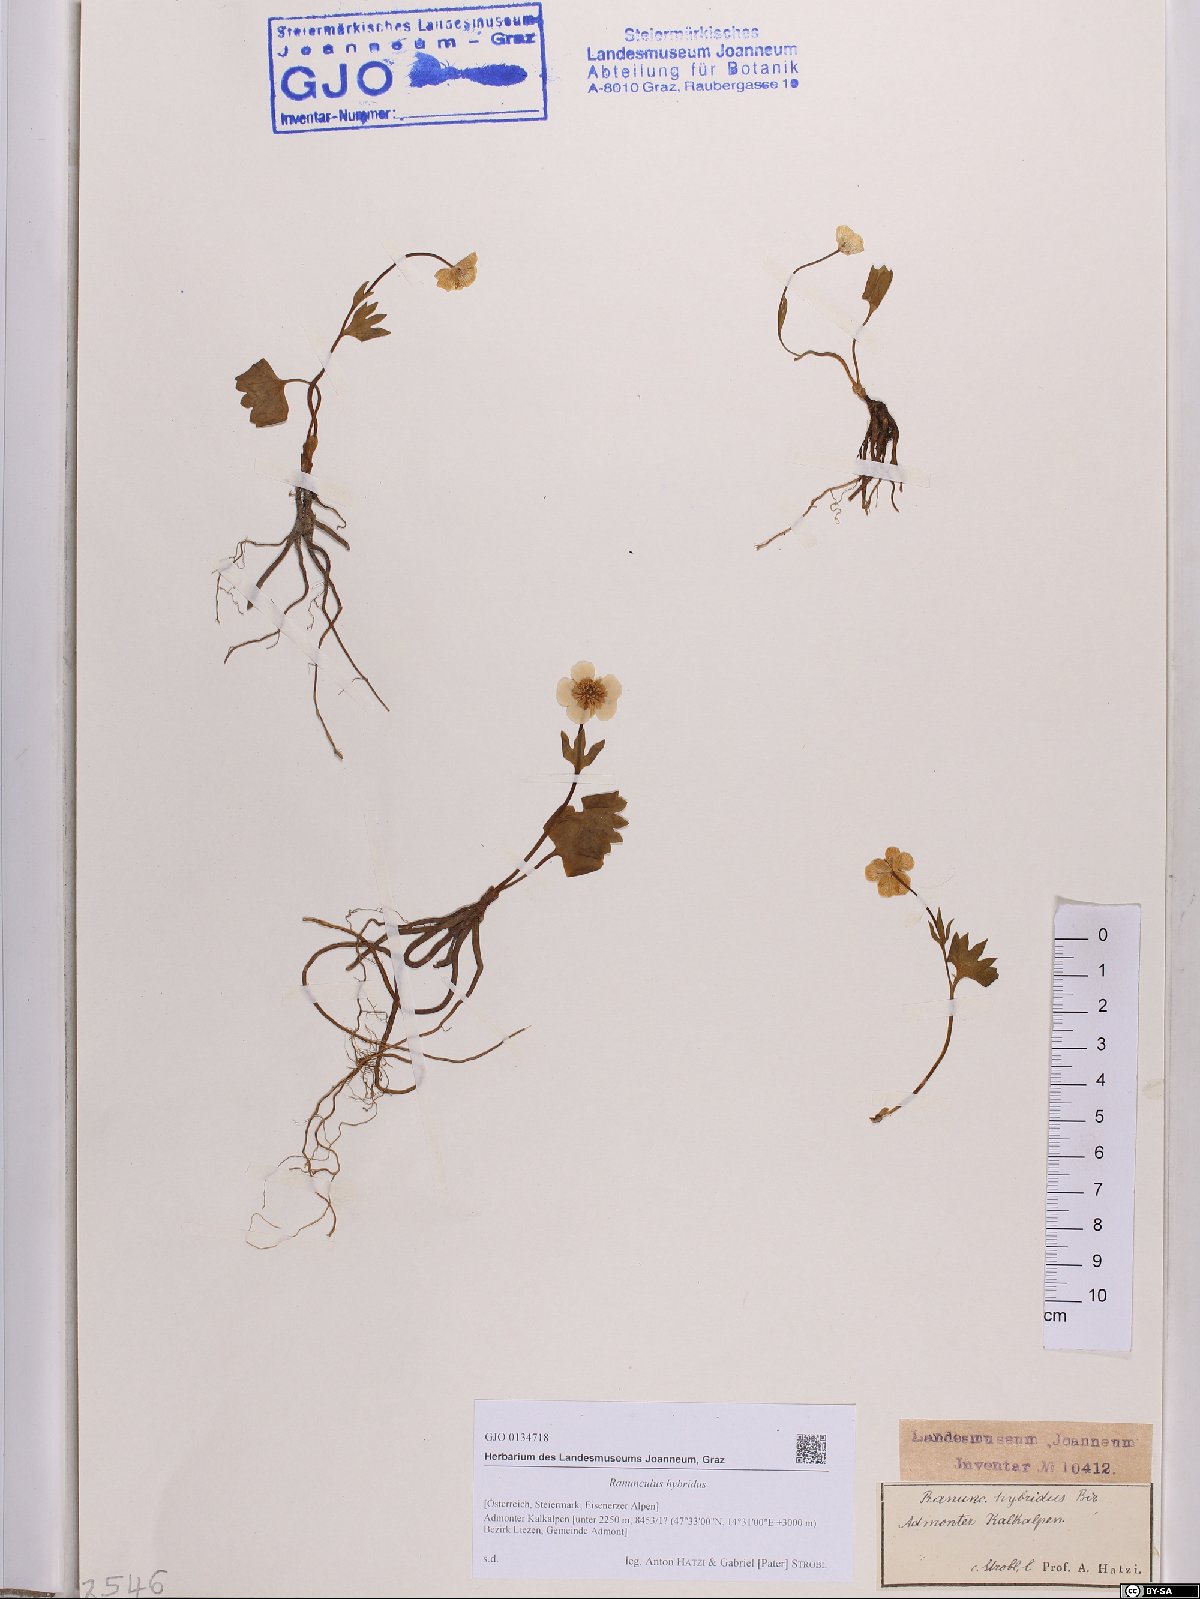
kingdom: Plantae
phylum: Tracheophyta
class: Magnoliopsida
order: Ranunculales
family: Ranunculaceae
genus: Ranunculus
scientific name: Ranunculus hybridus
